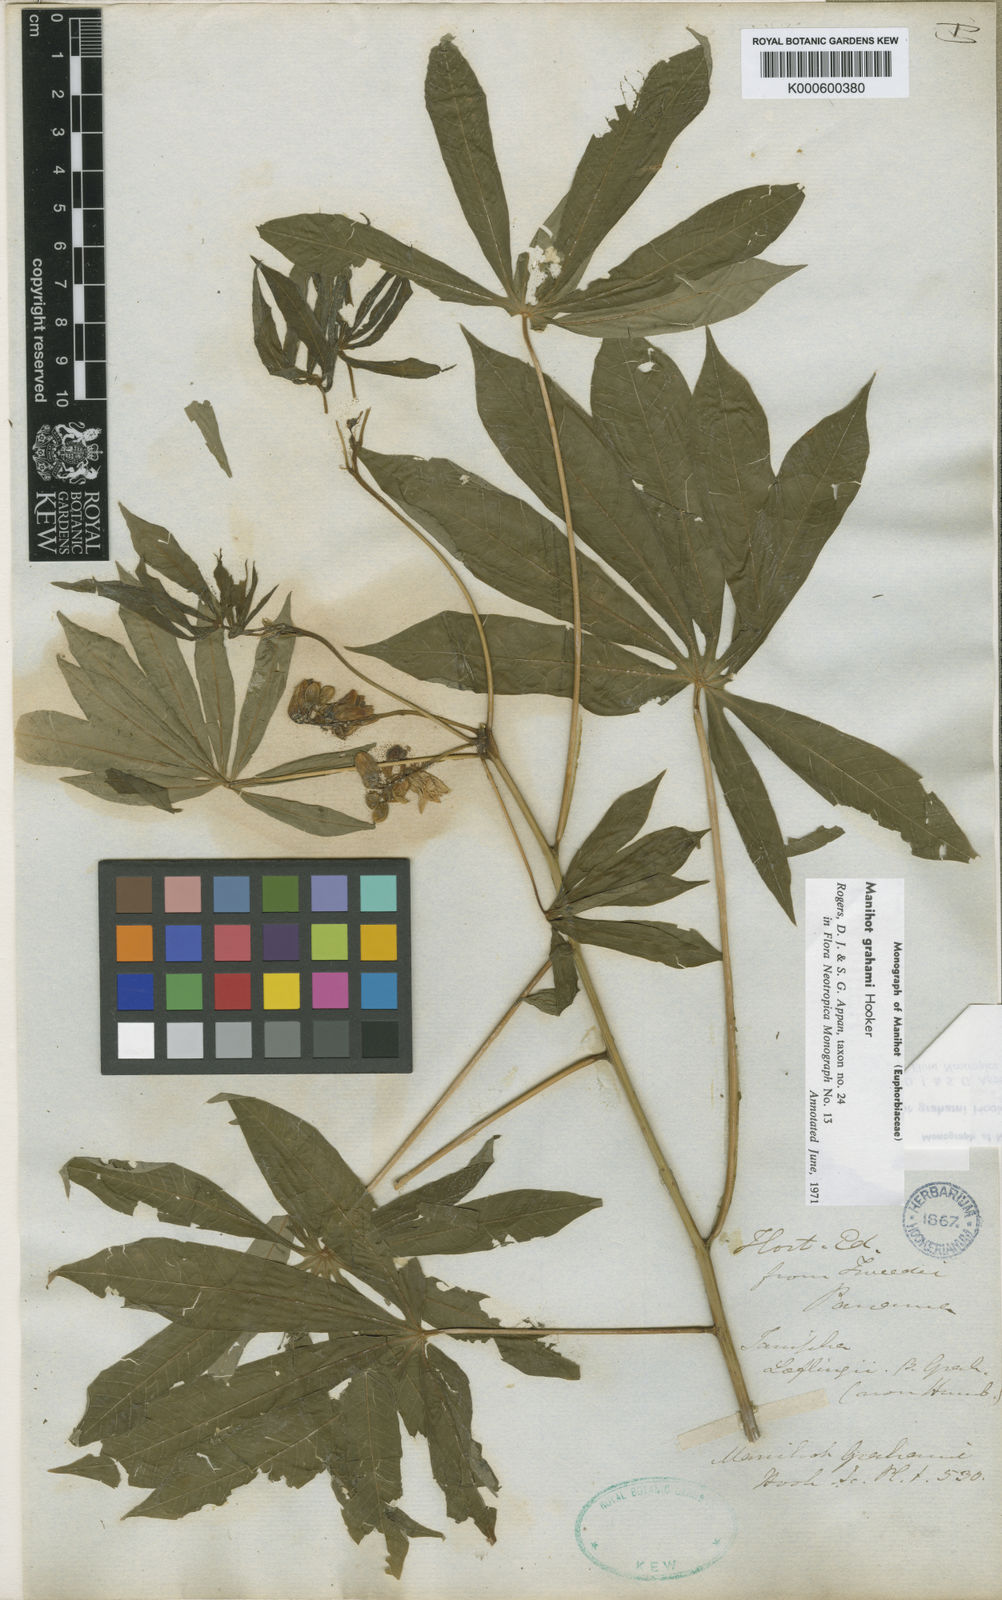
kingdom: Plantae
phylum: Tracheophyta
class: Magnoliopsida
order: Malpighiales
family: Euphorbiaceae
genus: Manihot
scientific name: Manihot grahamii
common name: Graham's manihot
